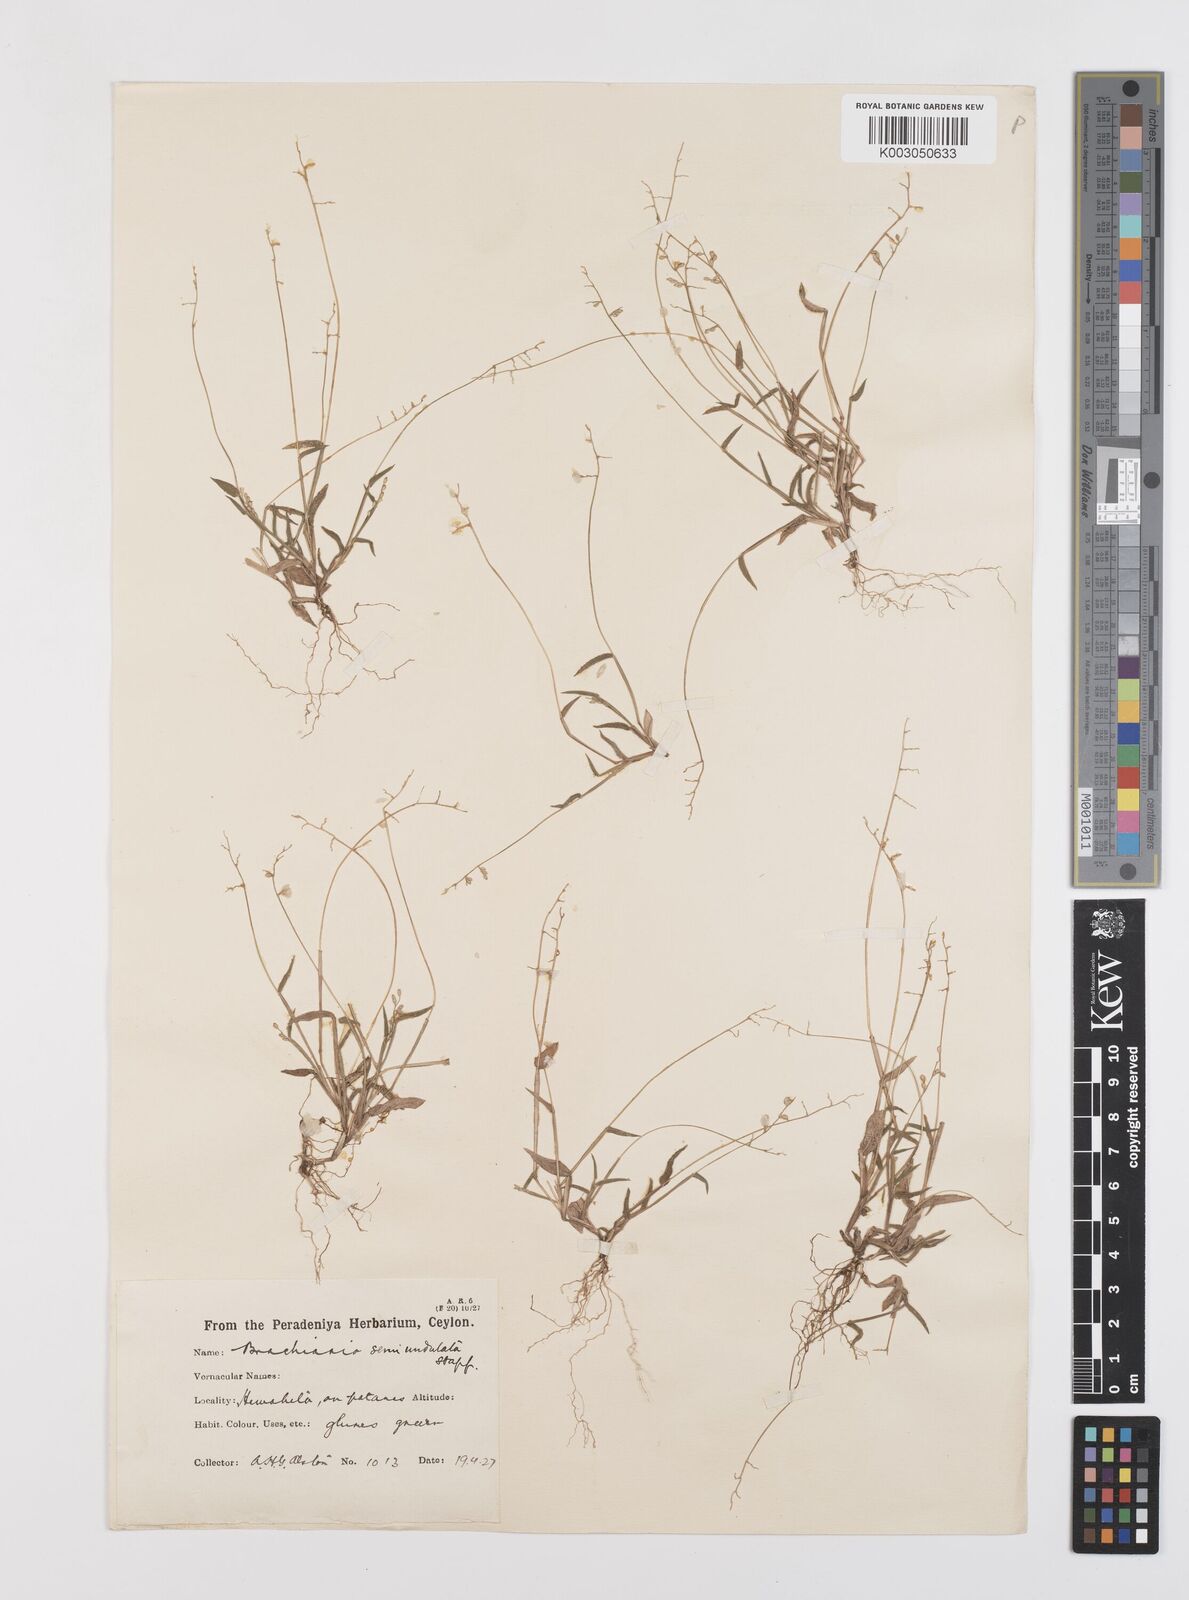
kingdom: Plantae
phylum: Tracheophyta
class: Liliopsida
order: Poales
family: Poaceae
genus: Urochloa
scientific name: Urochloa semiundulata
